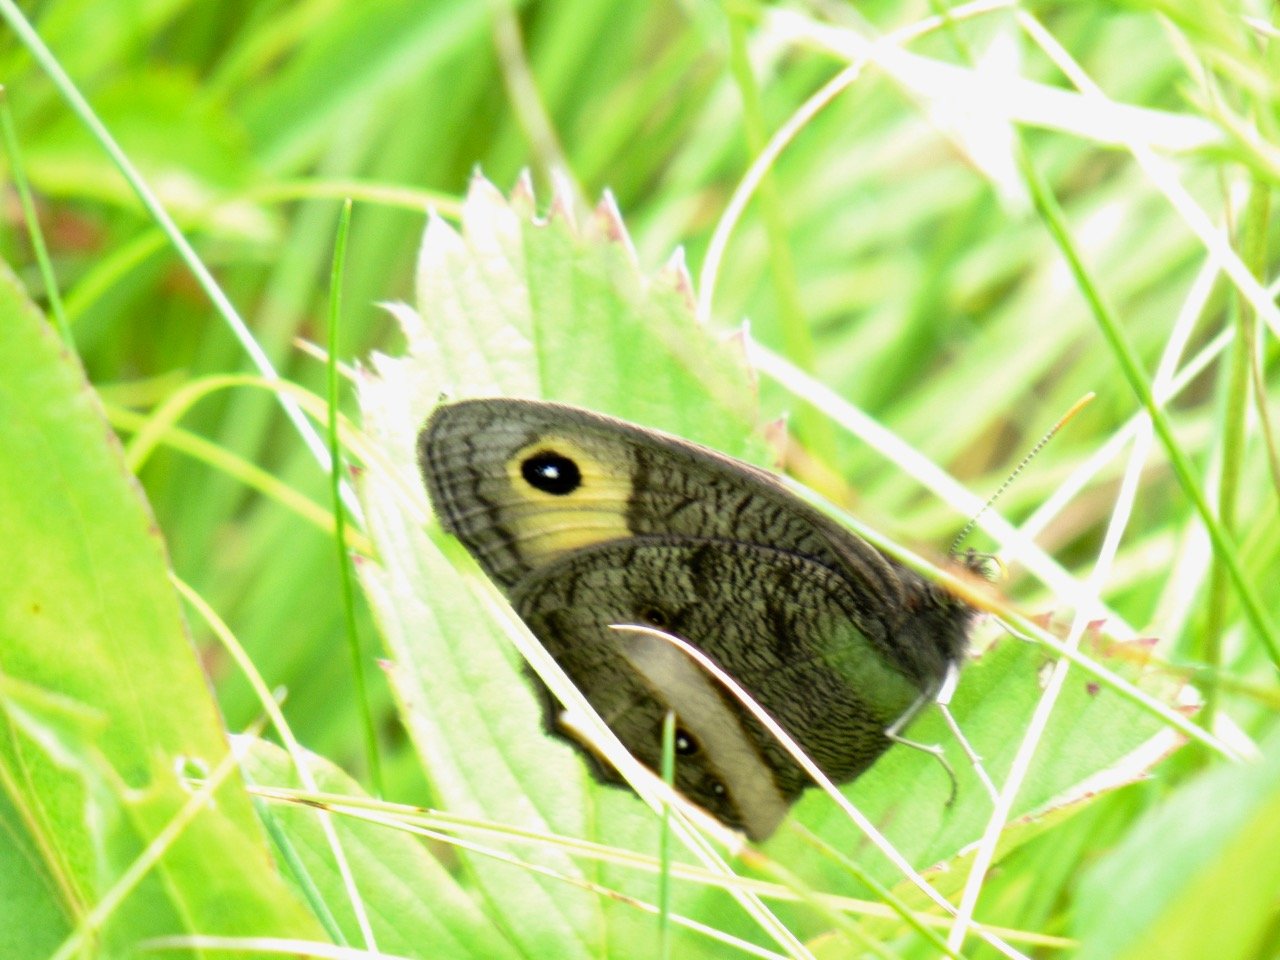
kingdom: Animalia
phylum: Arthropoda
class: Insecta
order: Lepidoptera
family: Nymphalidae
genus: Cercyonis
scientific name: Cercyonis pegala
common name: Common Wood-Nymph
